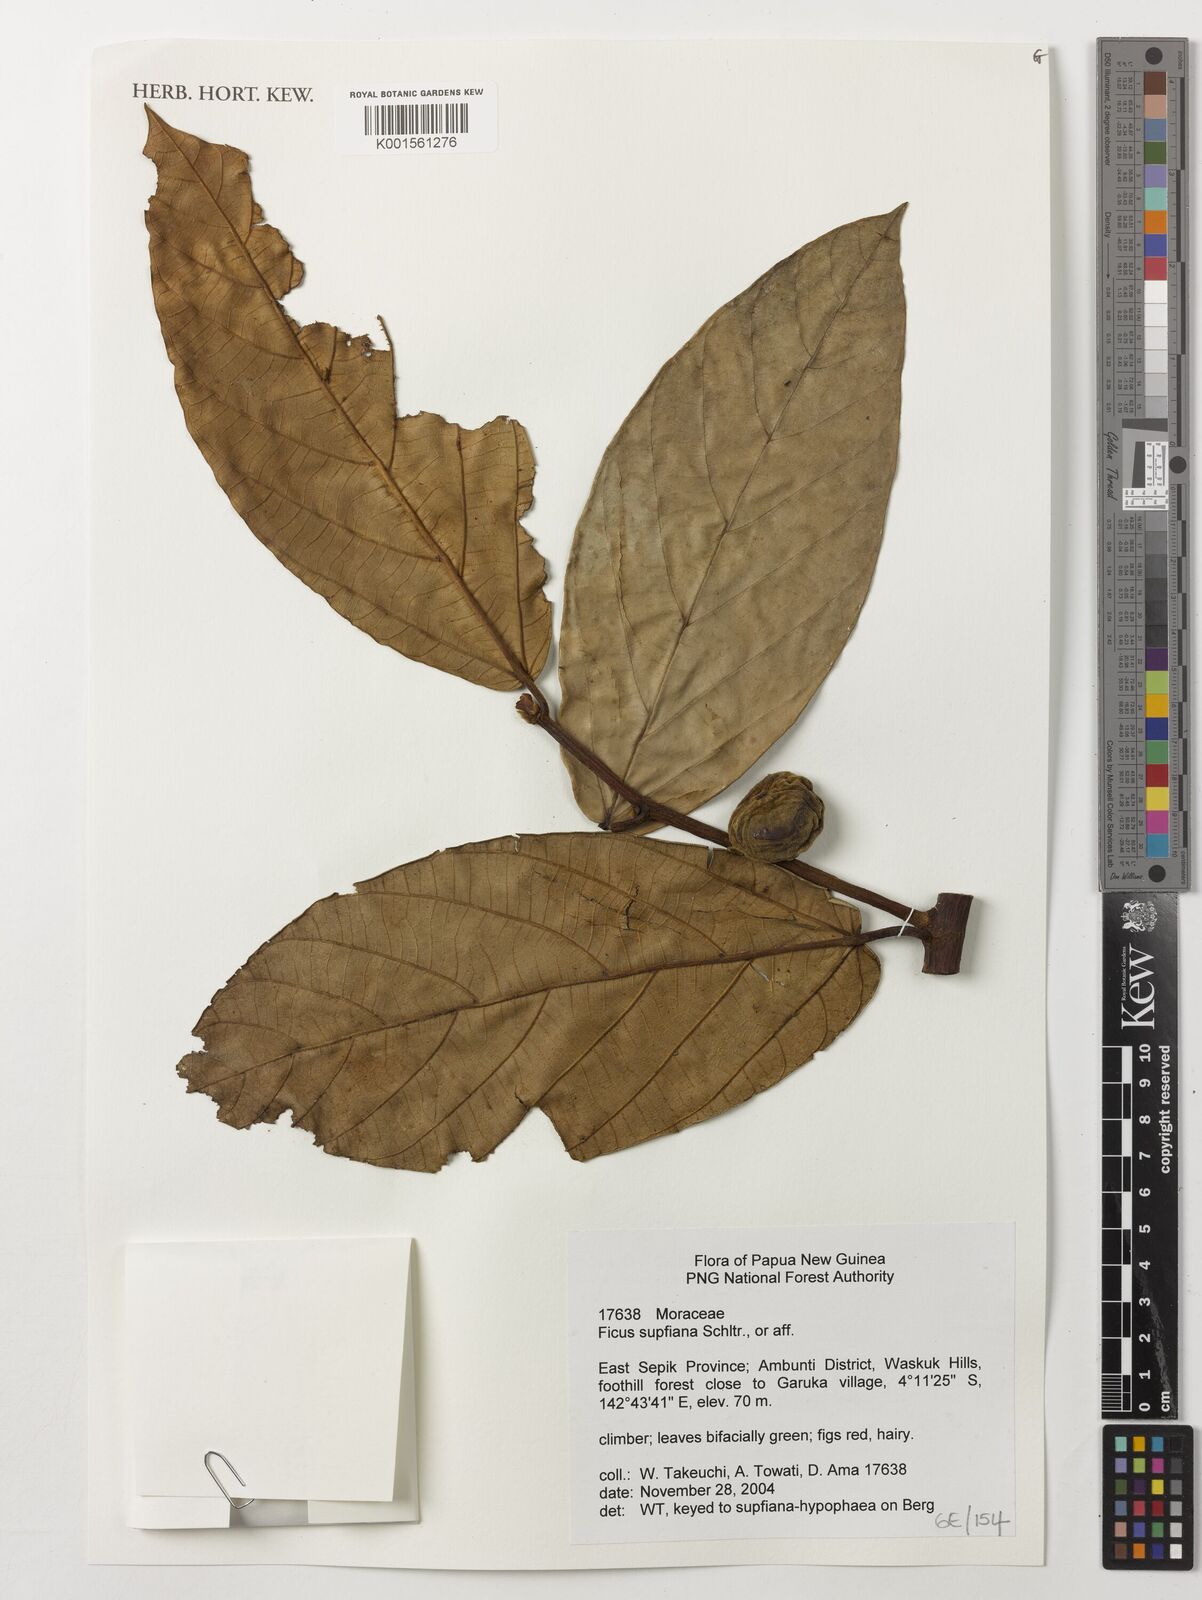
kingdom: Plantae
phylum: Tracheophyta
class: Magnoliopsida
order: Rosales
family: Moraceae
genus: Ficus
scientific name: Ficus supfiana
